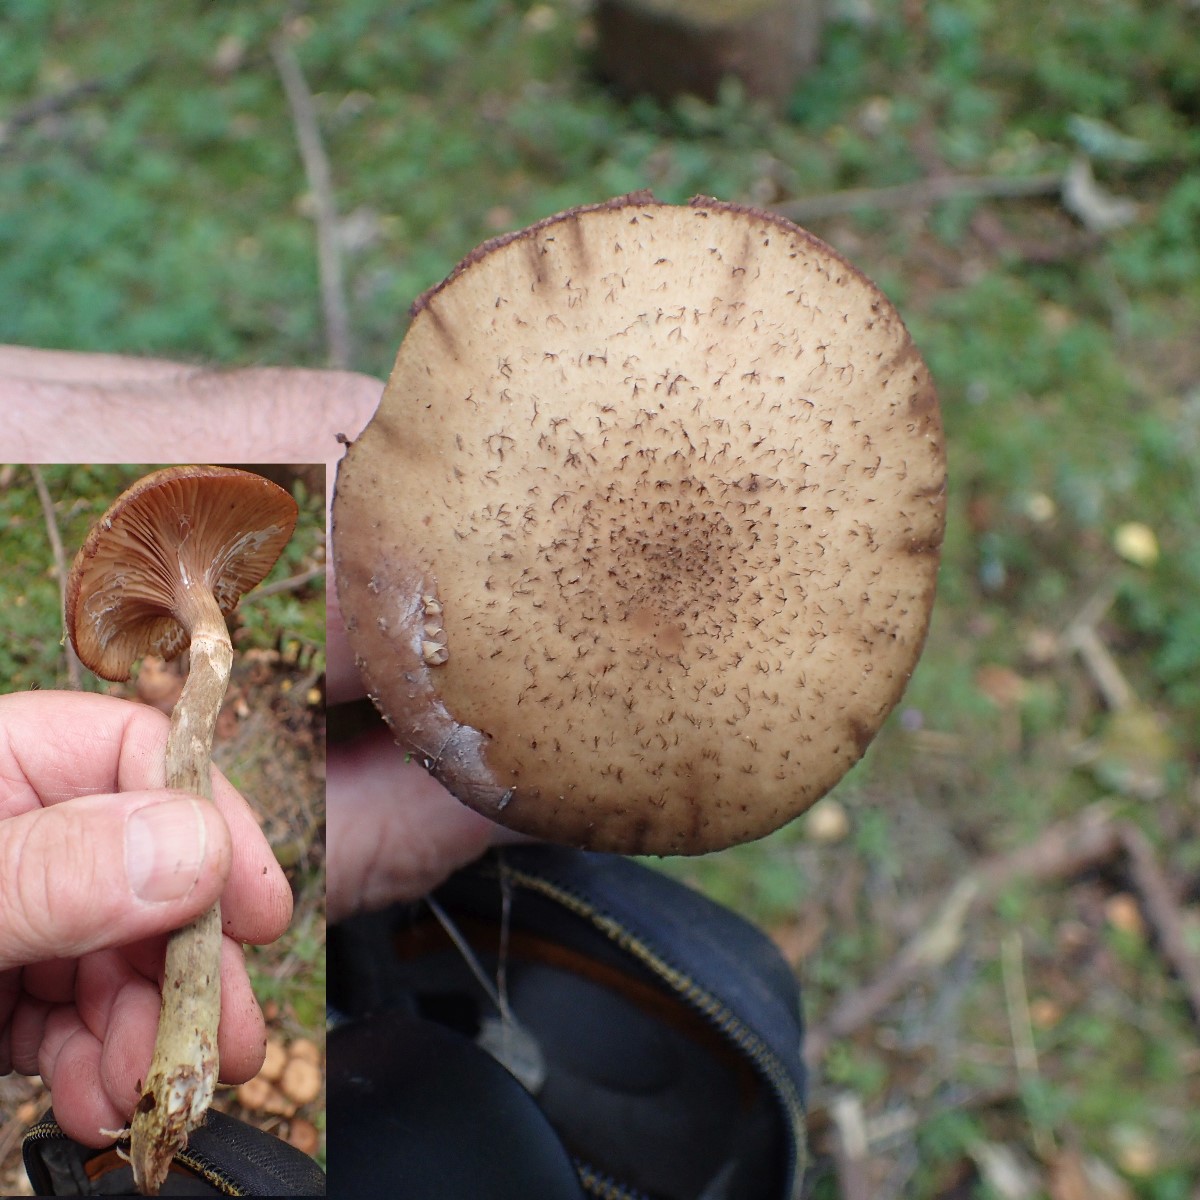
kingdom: Fungi
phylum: Basidiomycota
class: Agaricomycetes
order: Agaricales
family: Physalacriaceae
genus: Armillaria
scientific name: Armillaria ostoyae
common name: mørk honningsvamp
